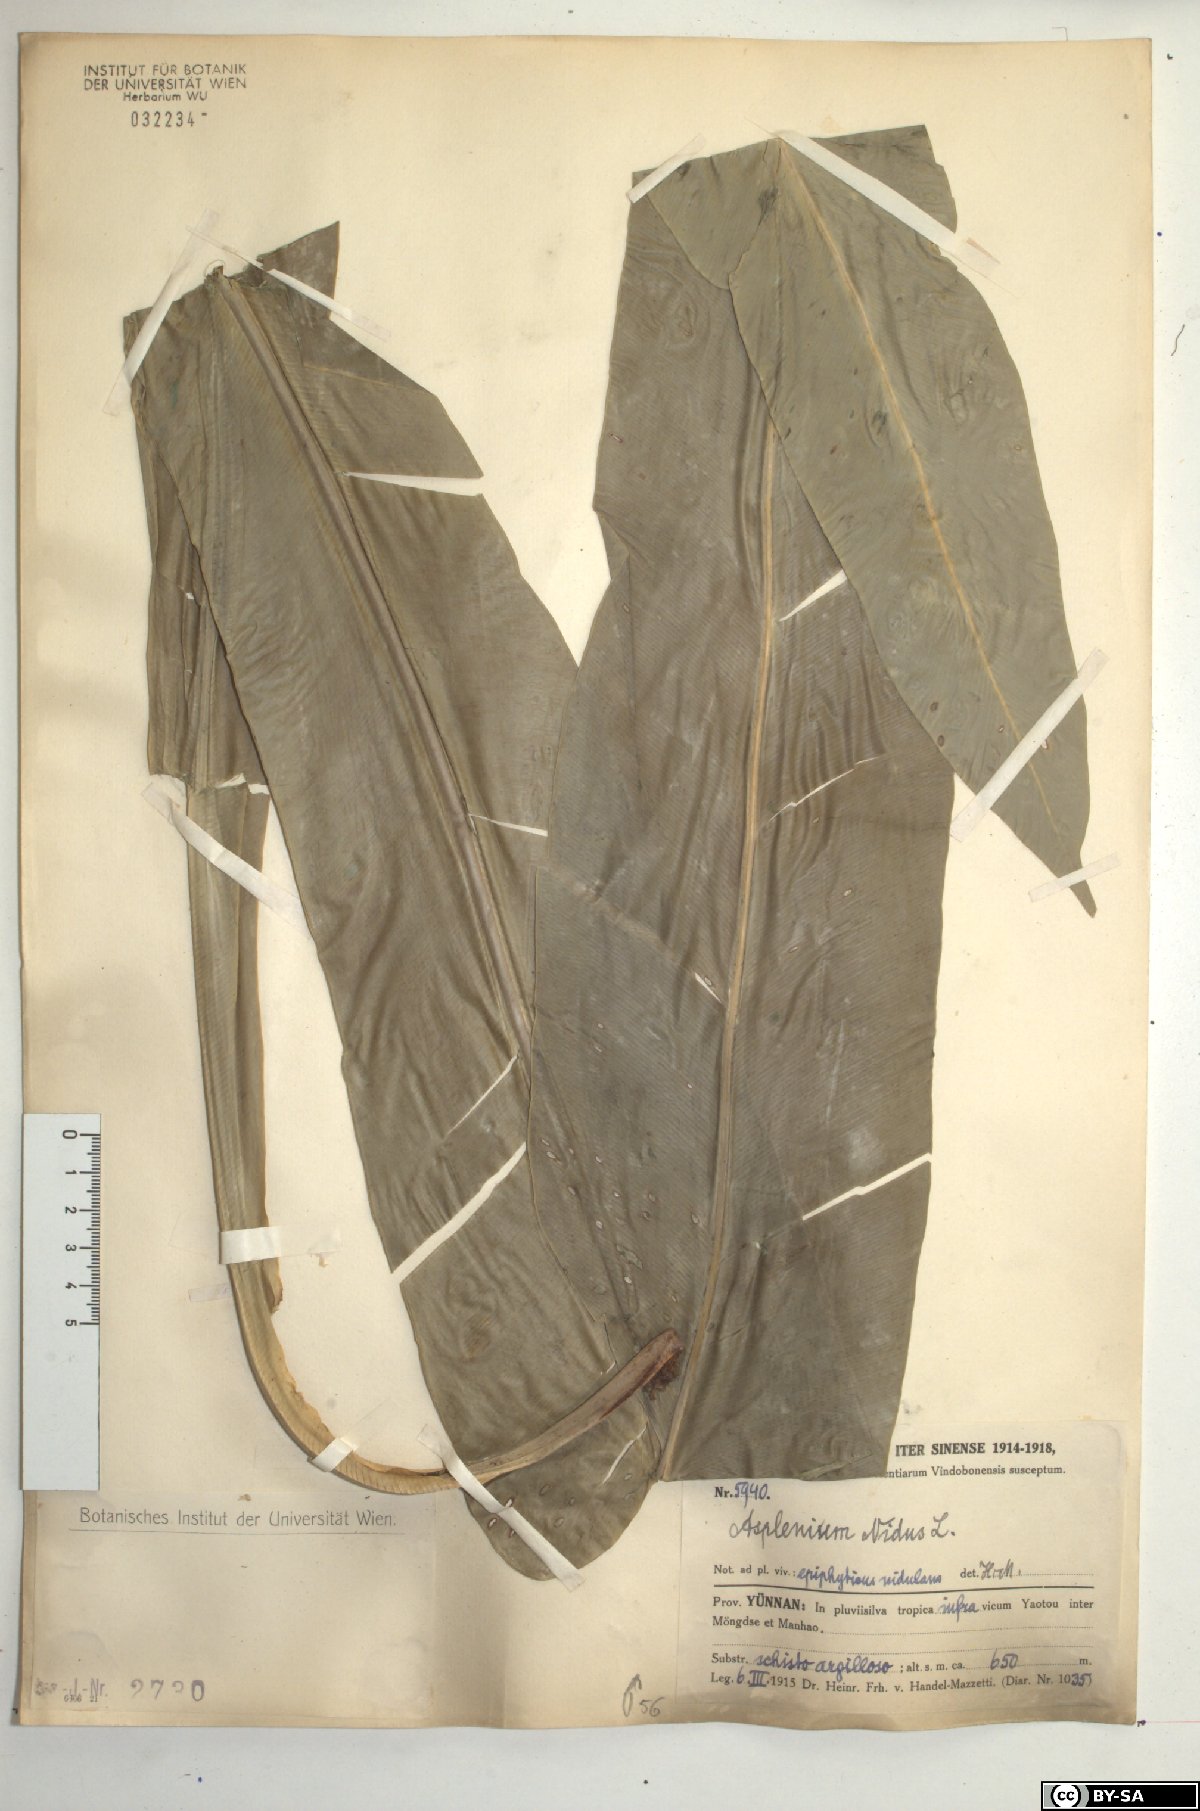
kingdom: Plantae
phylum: Tracheophyta
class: Polypodiopsida
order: Polypodiales
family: Aspleniaceae
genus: Asplenium
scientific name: Asplenium nidus
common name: Bird's-nest fern
